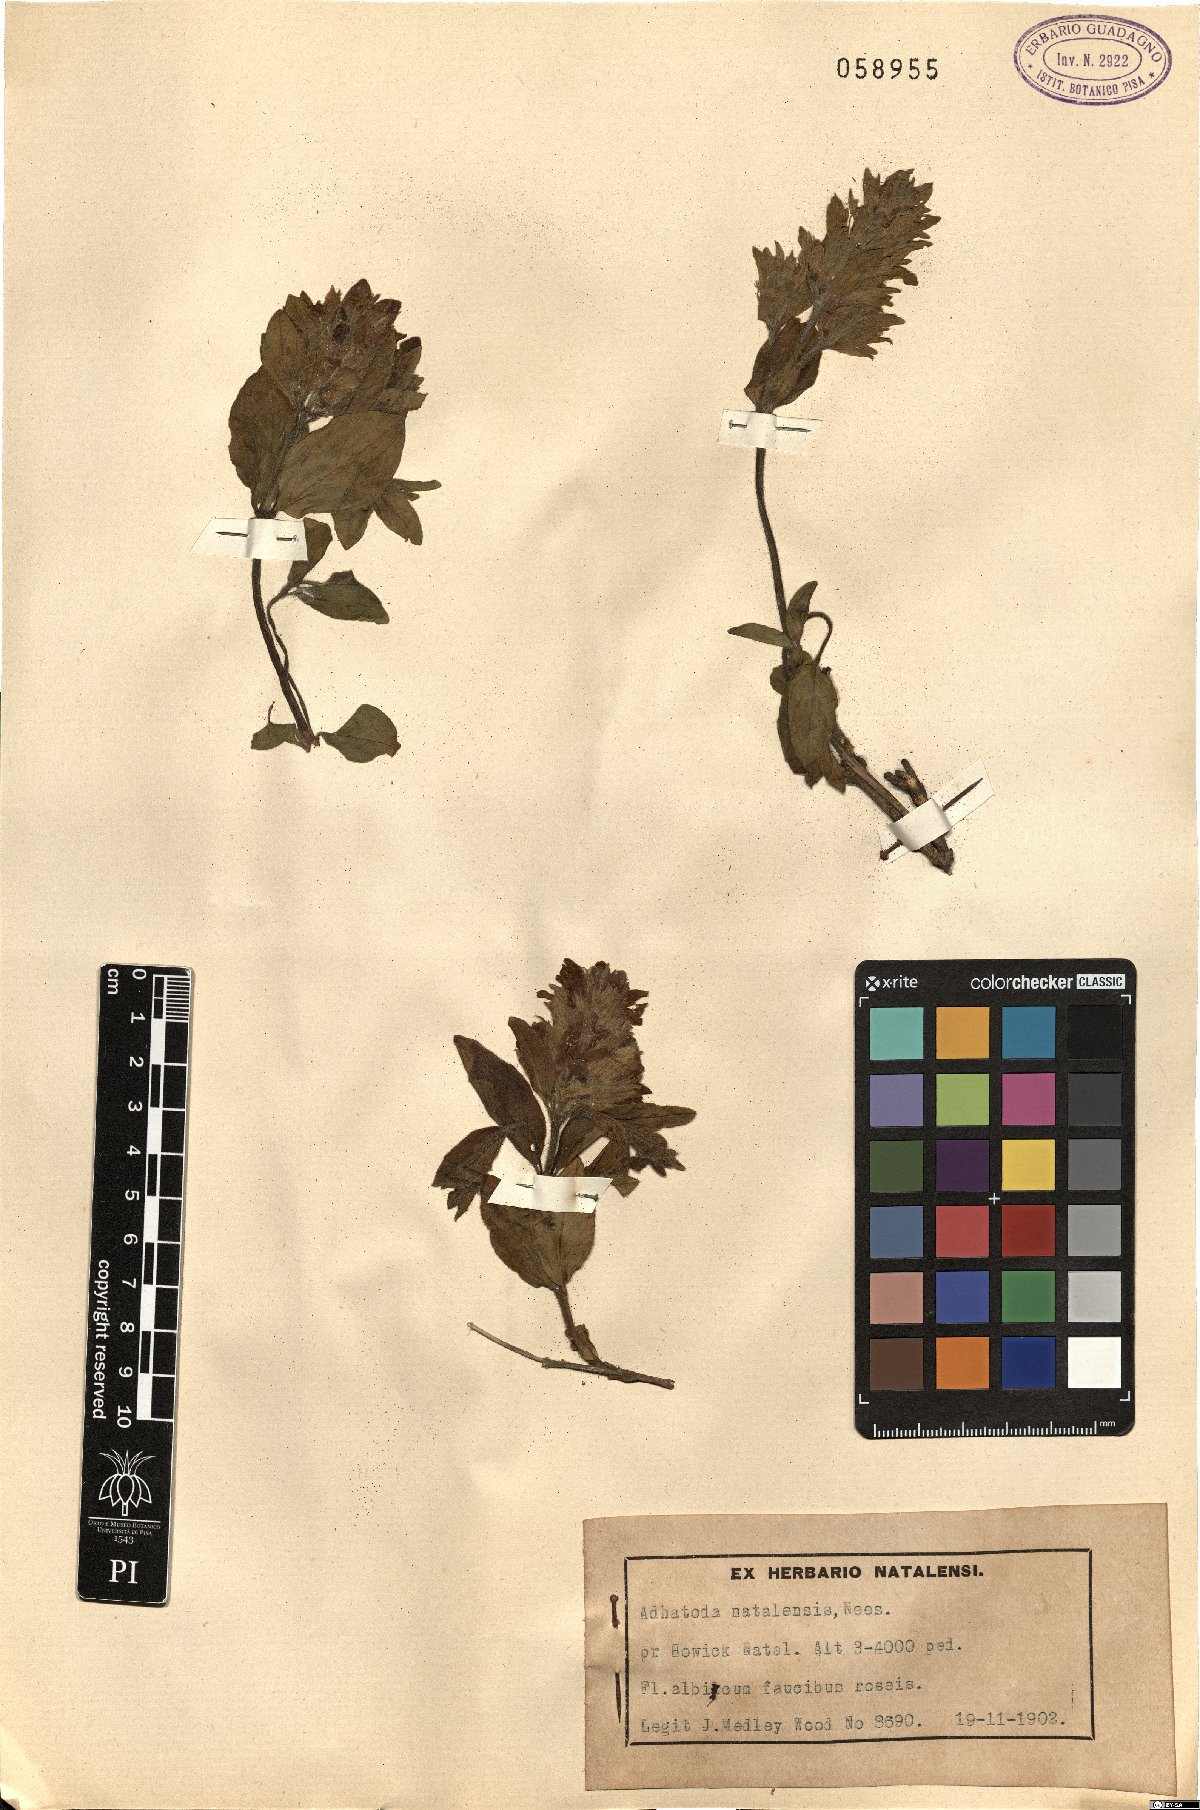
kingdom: Plantae
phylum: Tracheophyta
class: Magnoliopsida
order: Lamiales
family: Acanthaceae
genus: Monechma
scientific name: Monechma salsola
